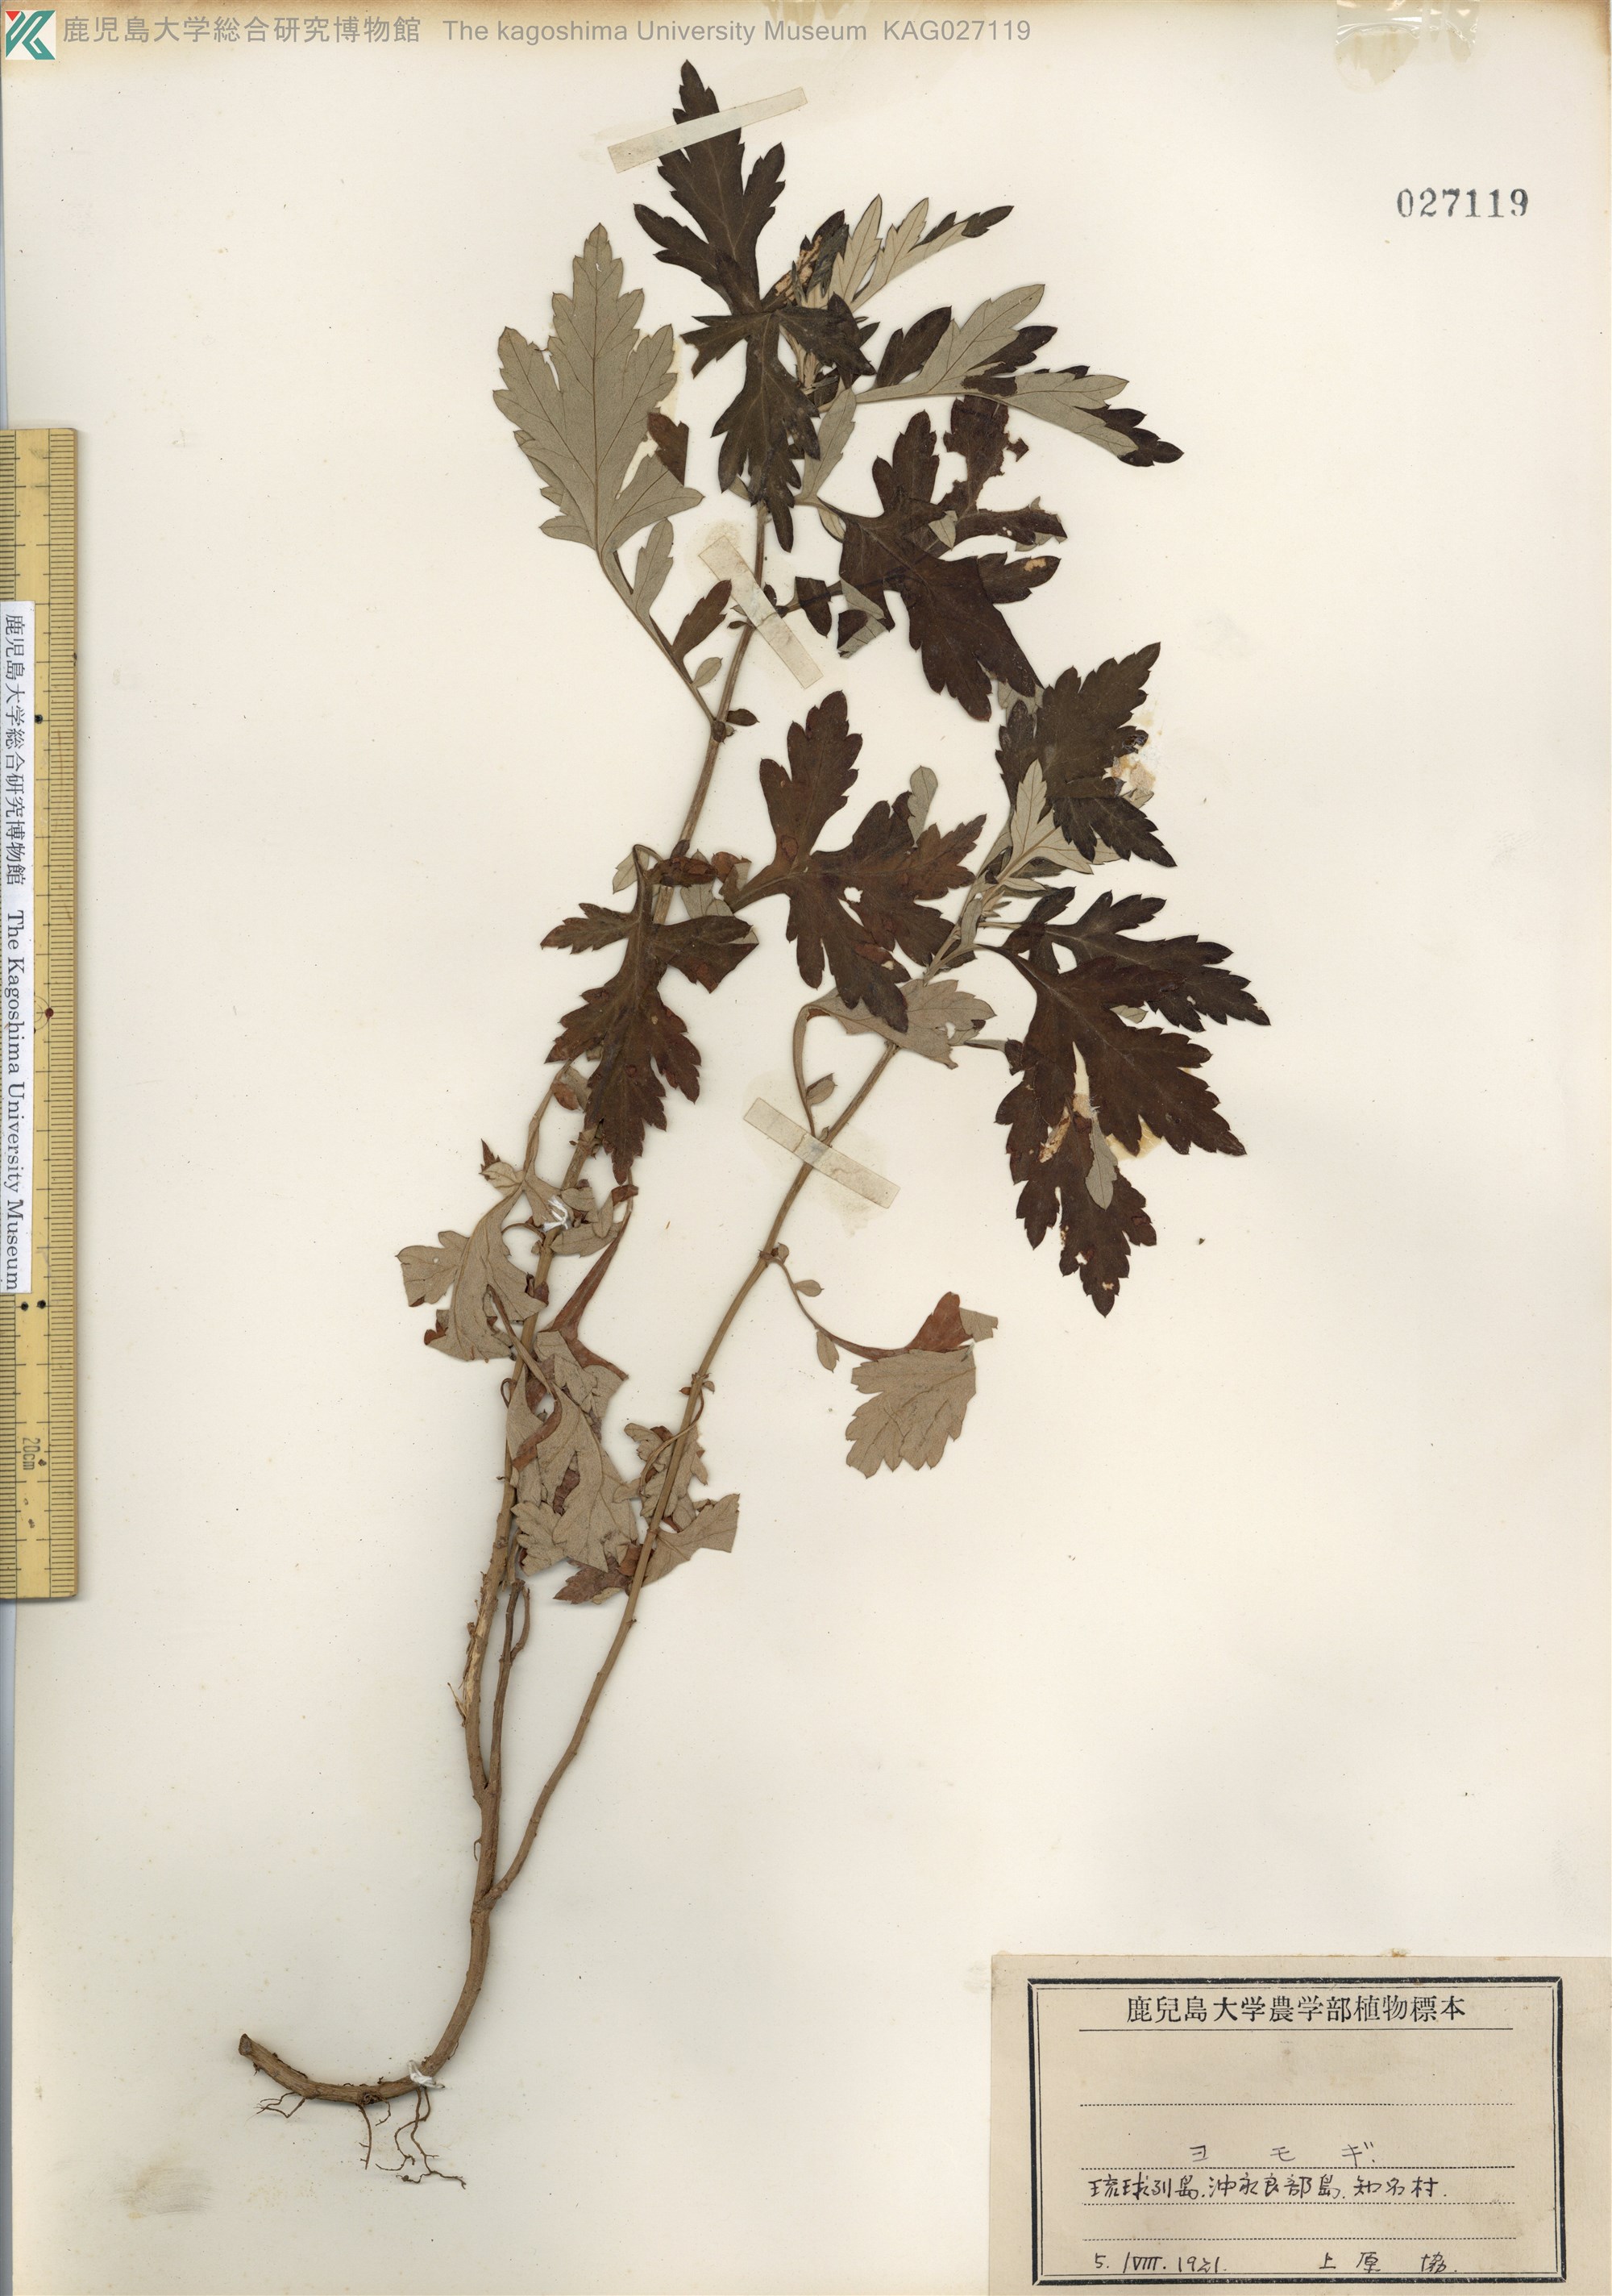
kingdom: Plantae
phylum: Tracheophyta
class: Magnoliopsida
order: Asterales
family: Asteraceae
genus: Artemisia
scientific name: Artemisia indica
